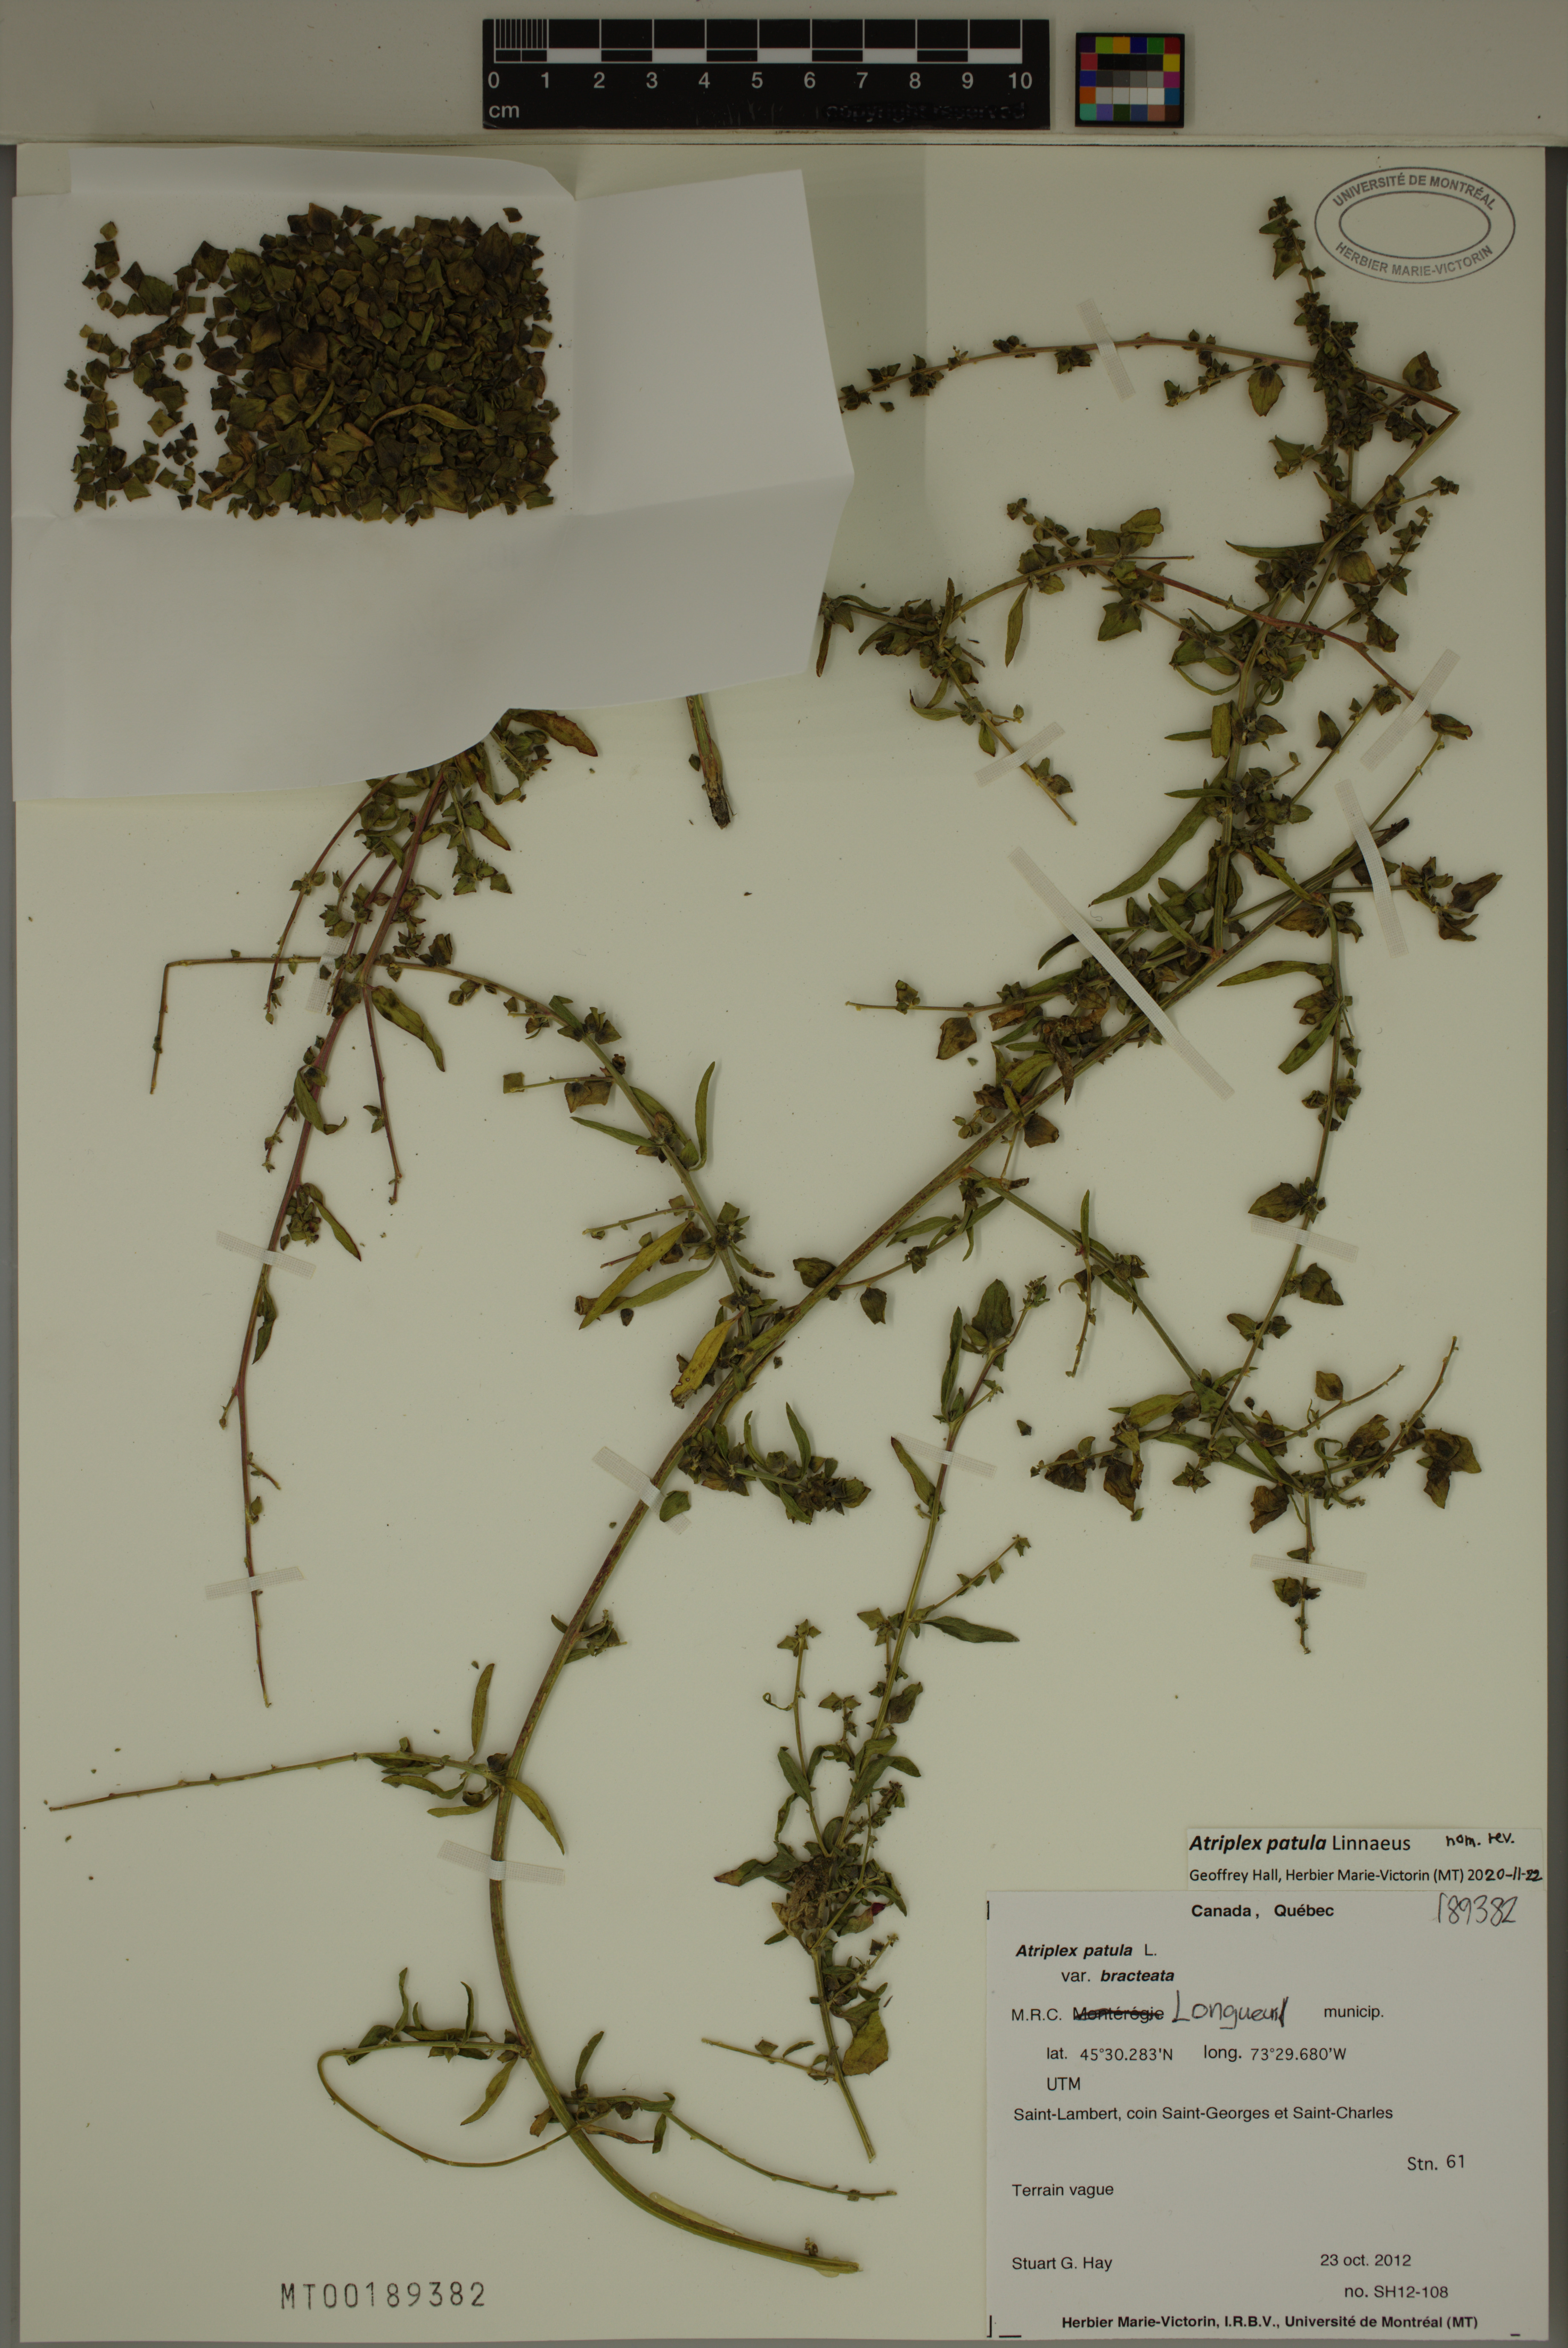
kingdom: Plantae
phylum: Tracheophyta
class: Magnoliopsida
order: Caryophyllales
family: Amaranthaceae
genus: Atriplex
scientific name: Atriplex patula
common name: Common orache
